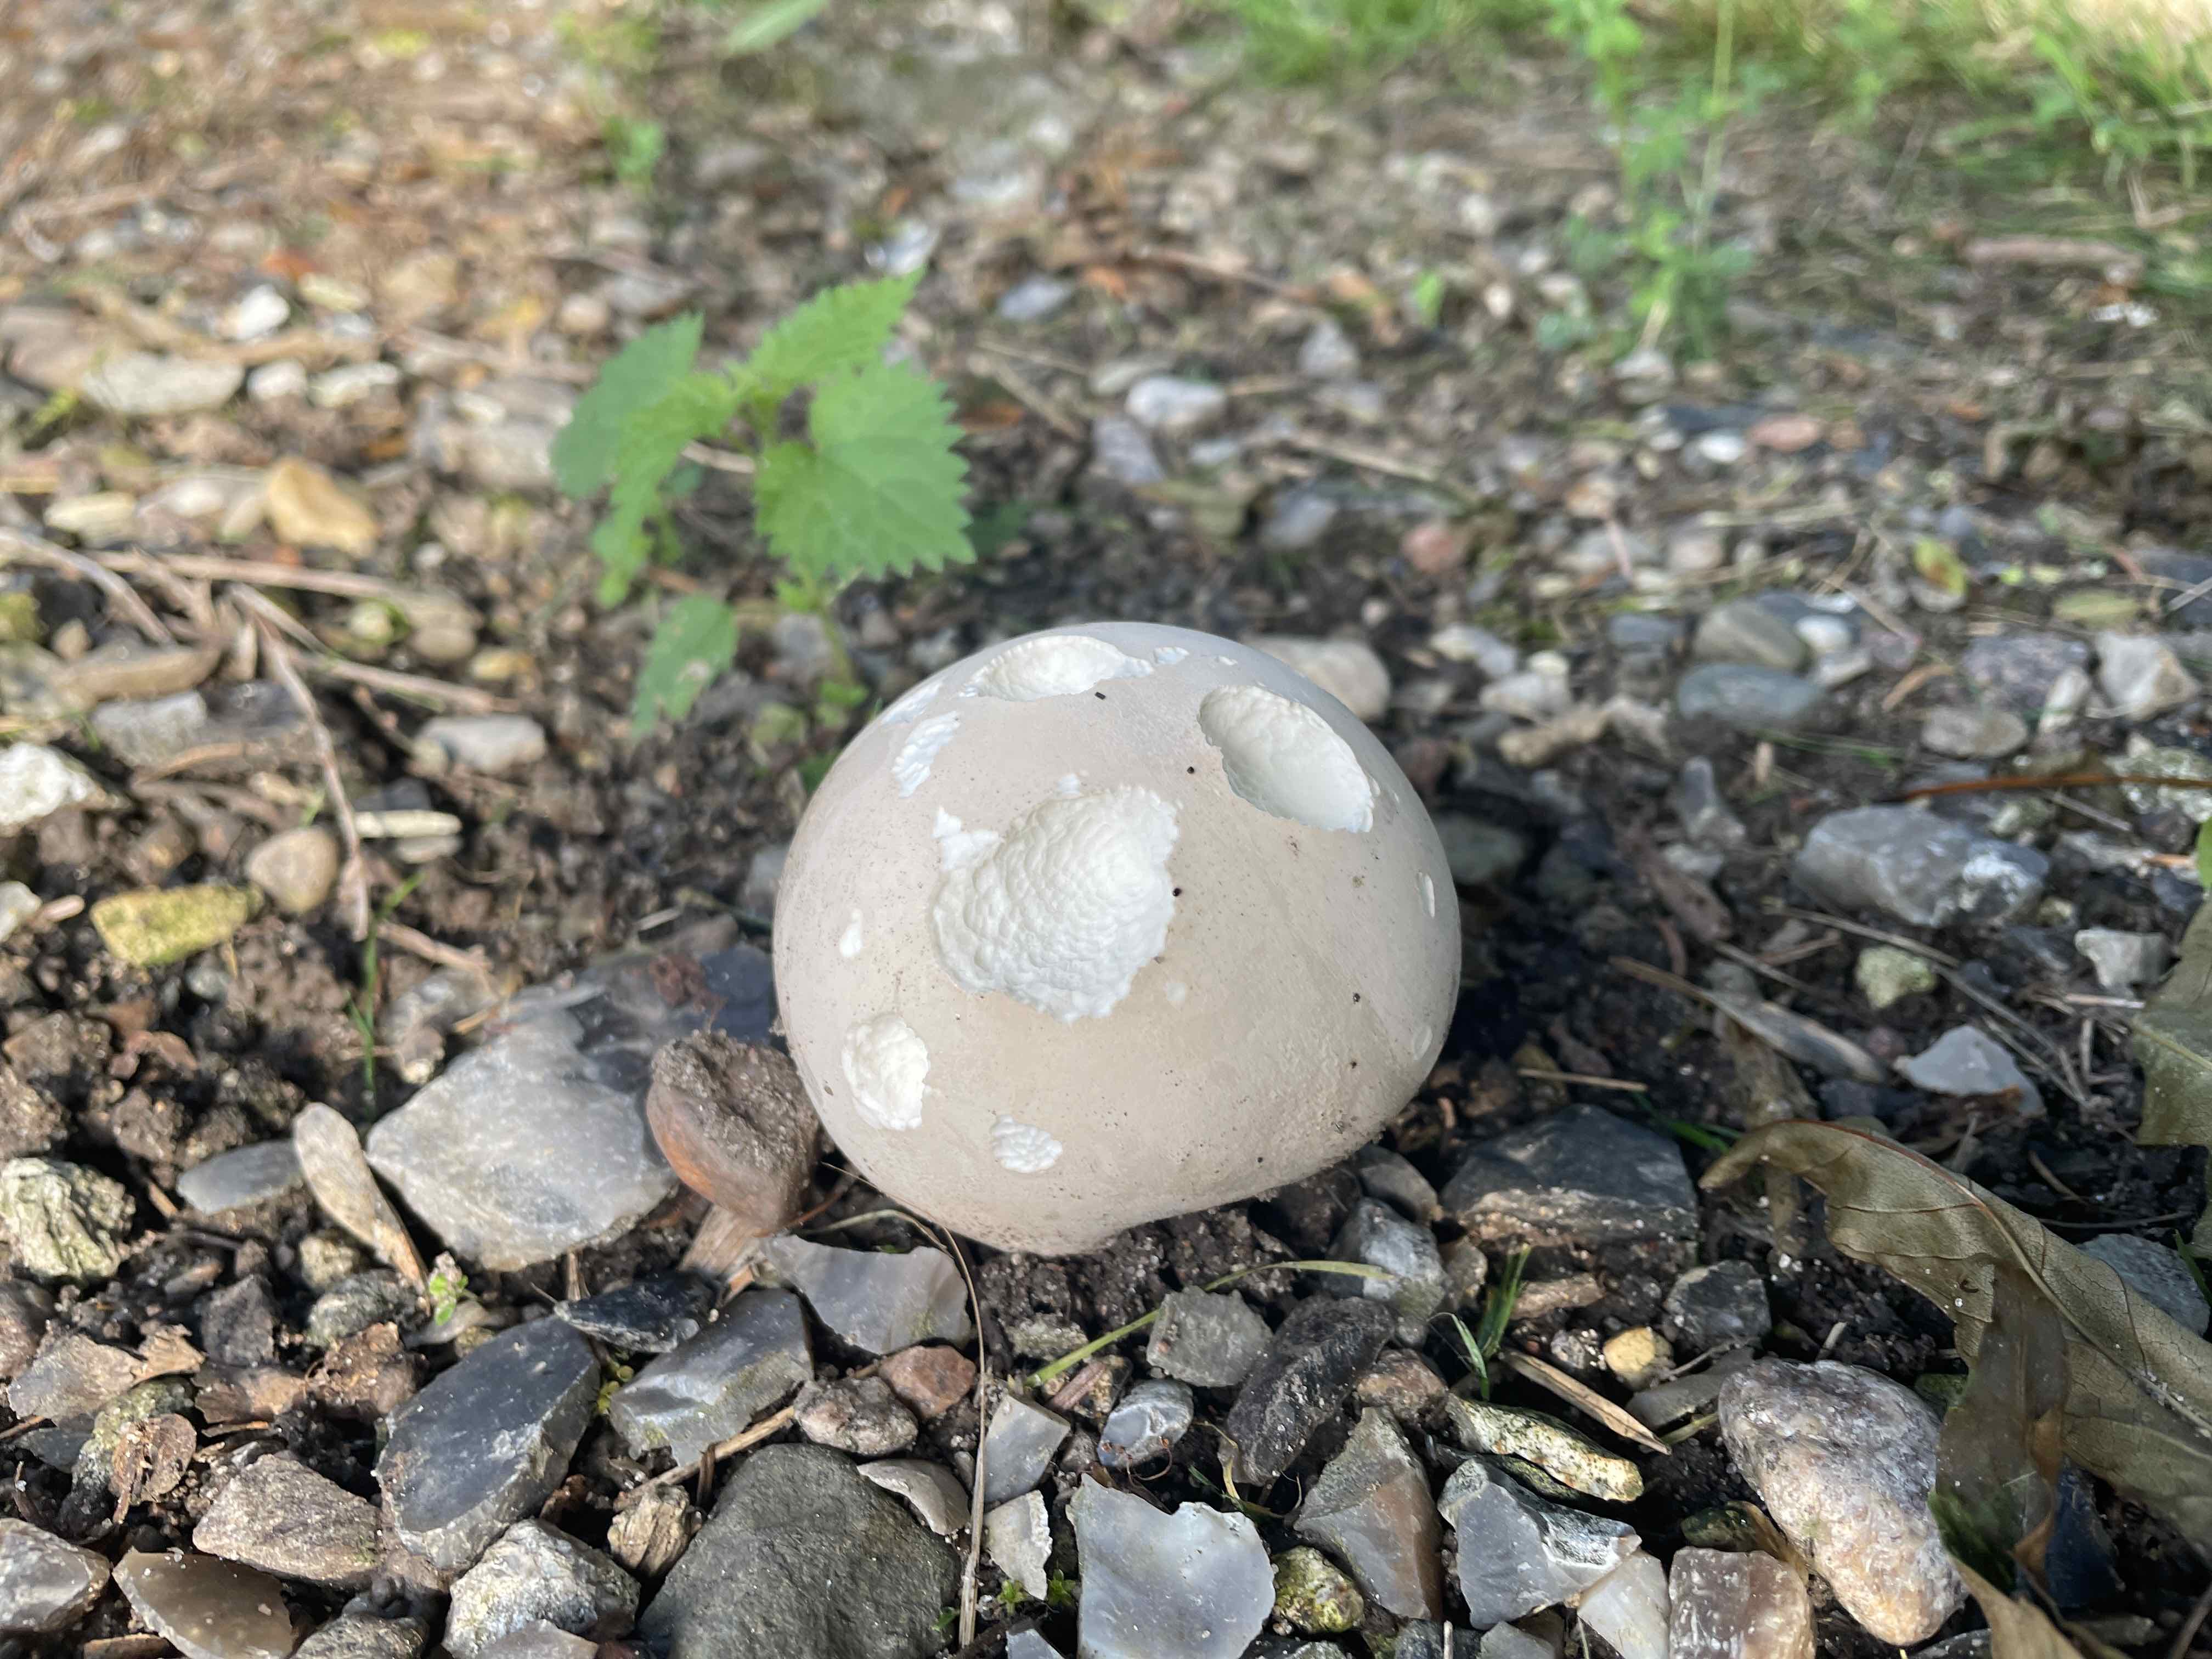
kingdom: Fungi
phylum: Basidiomycota
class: Agaricomycetes
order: Agaricales
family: Lycoperdaceae
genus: Calvatia
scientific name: Calvatia gigantea
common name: kæmpestøvbold
